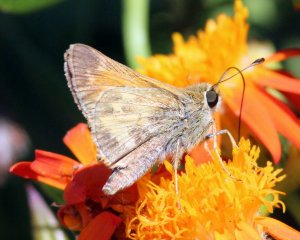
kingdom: Animalia
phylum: Arthropoda
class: Insecta
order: Lepidoptera
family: Hesperiidae
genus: Atalopedes
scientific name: Atalopedes campestris
